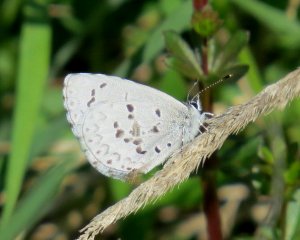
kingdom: Animalia
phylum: Arthropoda
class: Insecta
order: Lepidoptera
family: Lycaenidae
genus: Celastrina
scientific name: Celastrina lucia
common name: Northern Spring Azure
